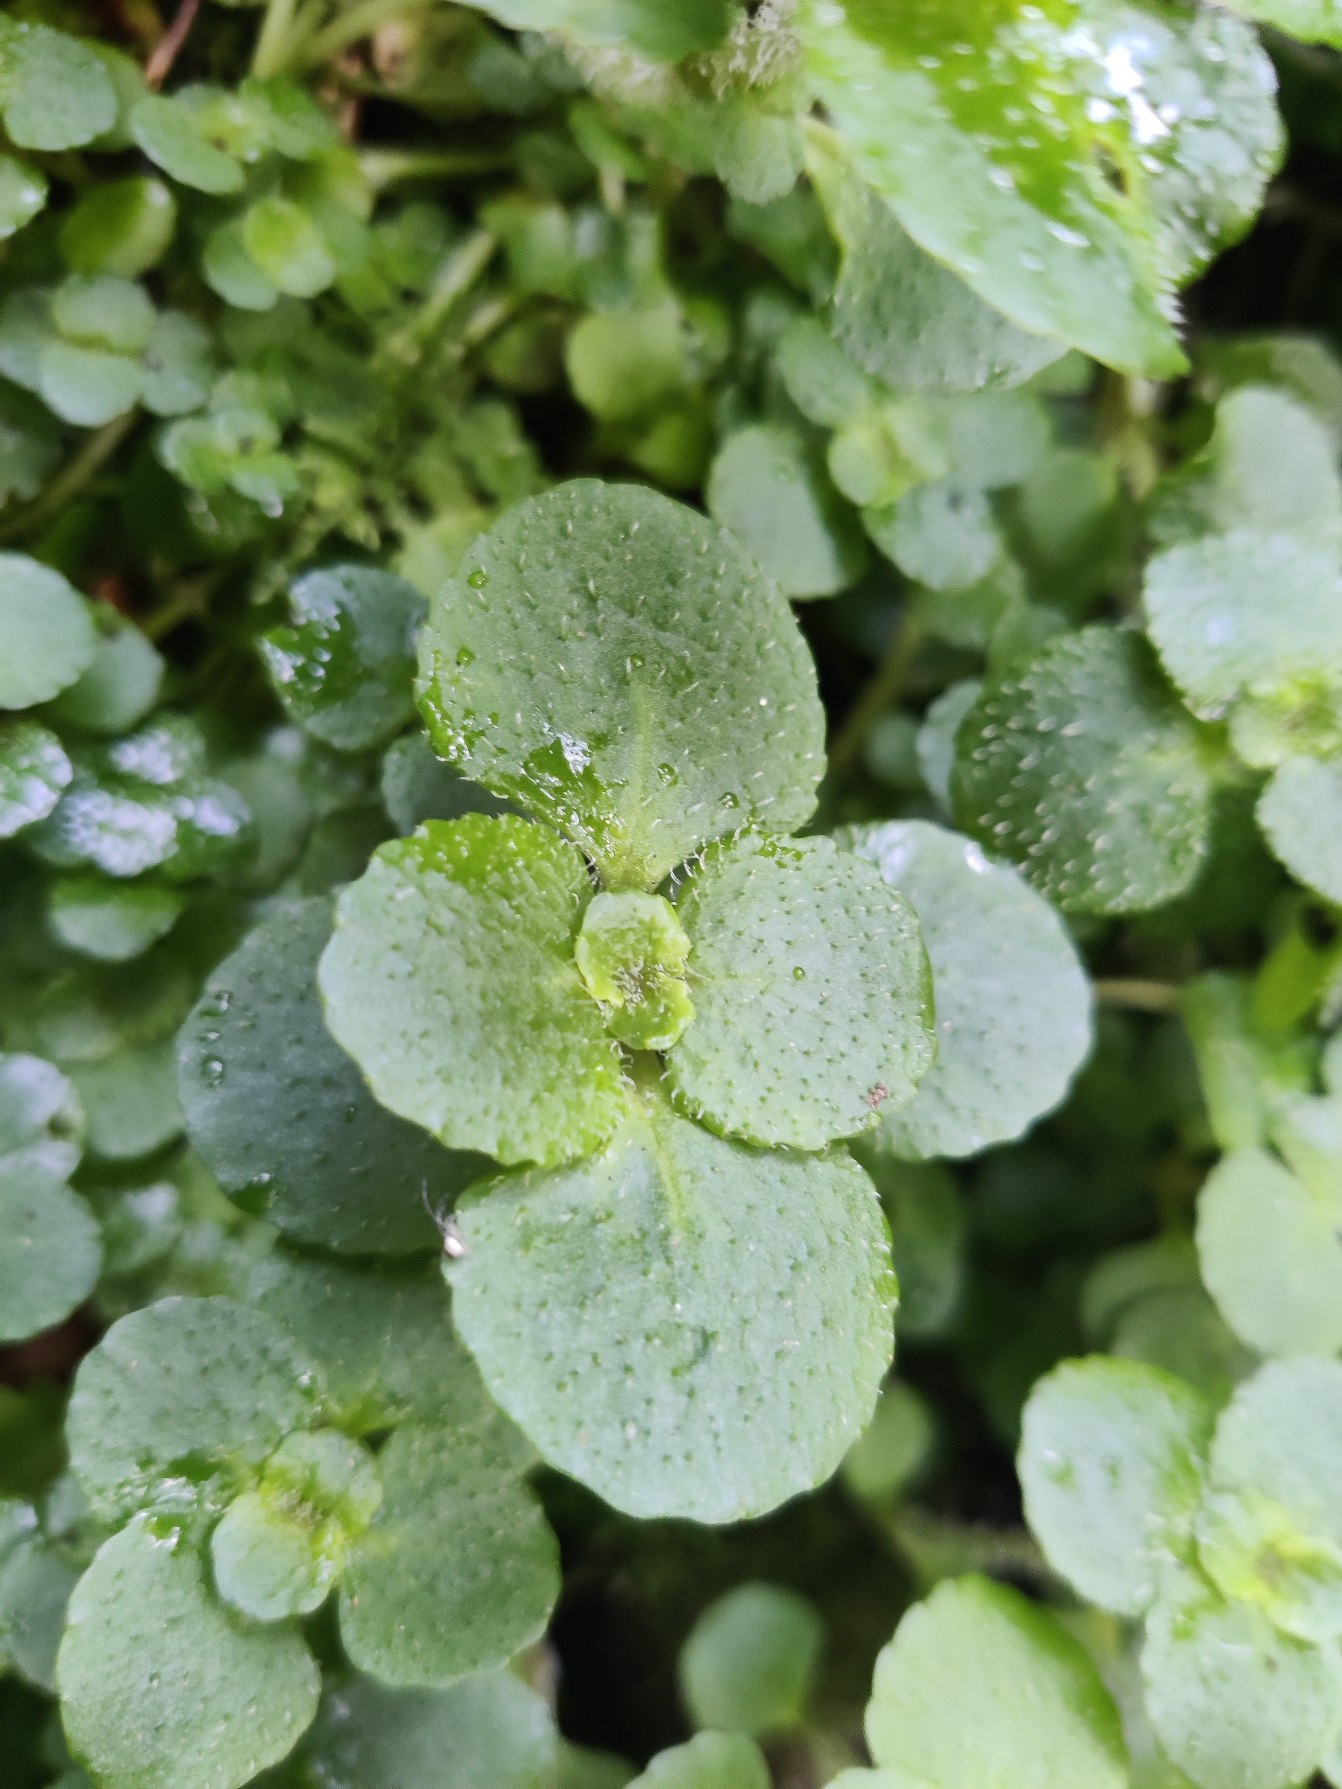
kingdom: Plantae
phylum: Tracheophyta
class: Magnoliopsida
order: Saxifragales
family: Saxifragaceae
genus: Chrysosplenium
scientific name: Chrysosplenium oppositifolium
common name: Småbladet milturt
